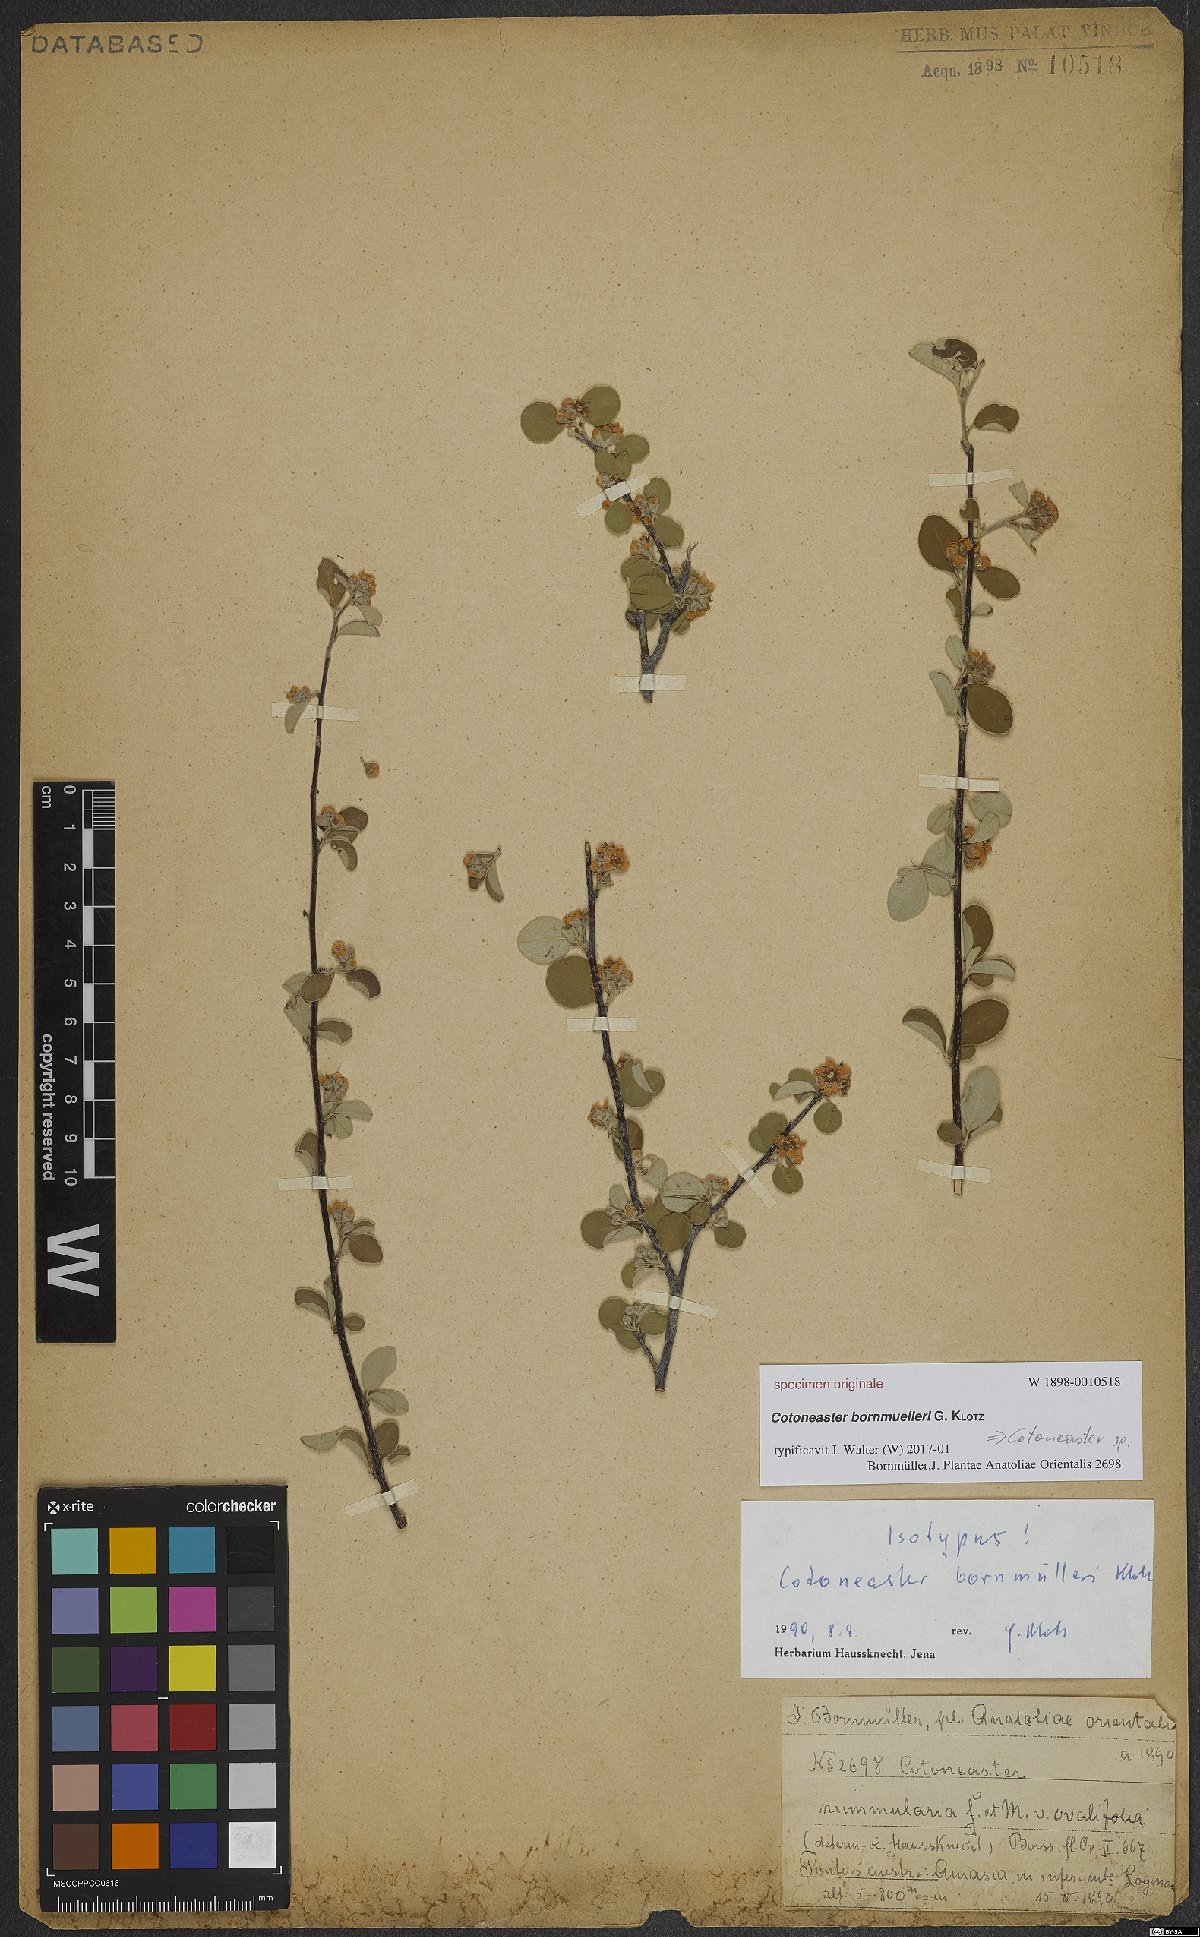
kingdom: Plantae
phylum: Tracheophyta
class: Magnoliopsida
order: Rosales
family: Rosaceae
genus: Cotoneaster
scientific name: Cotoneaster
